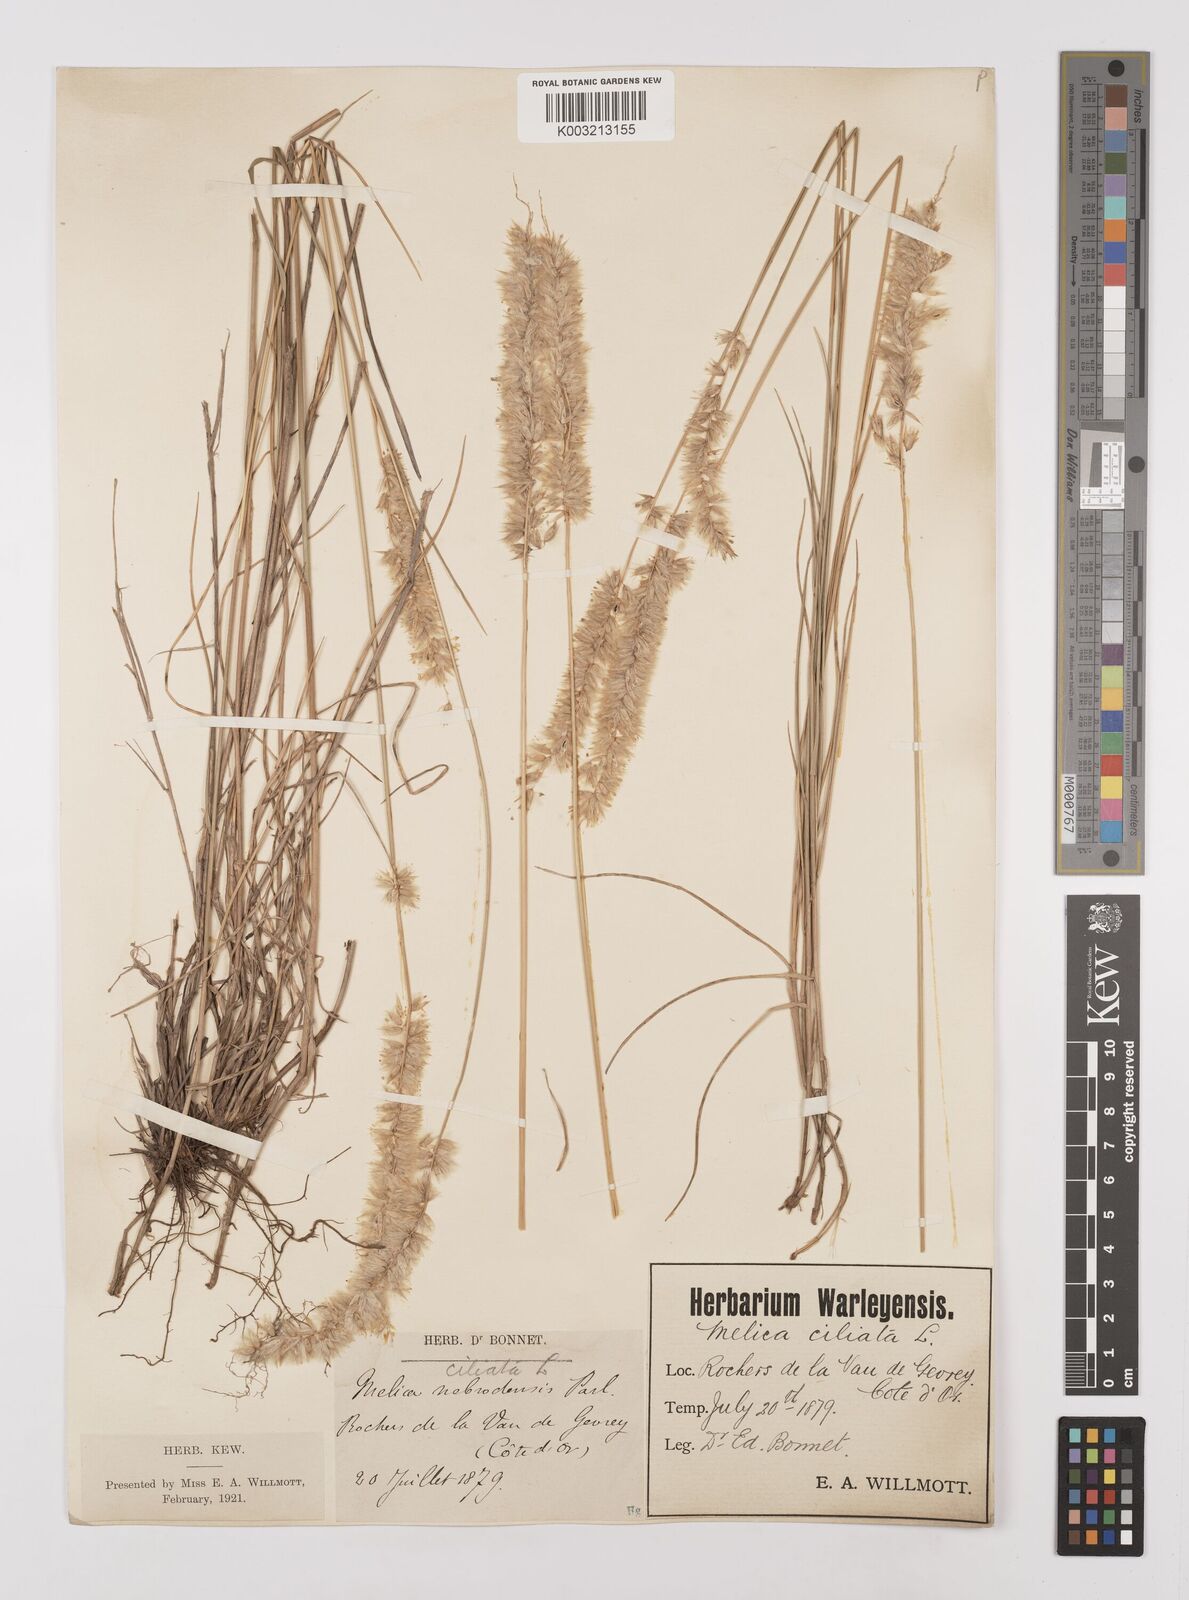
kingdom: Plantae
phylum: Tracheophyta
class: Liliopsida
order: Poales
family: Poaceae
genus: Melica
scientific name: Melica ciliata
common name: Hairy melicgrass
